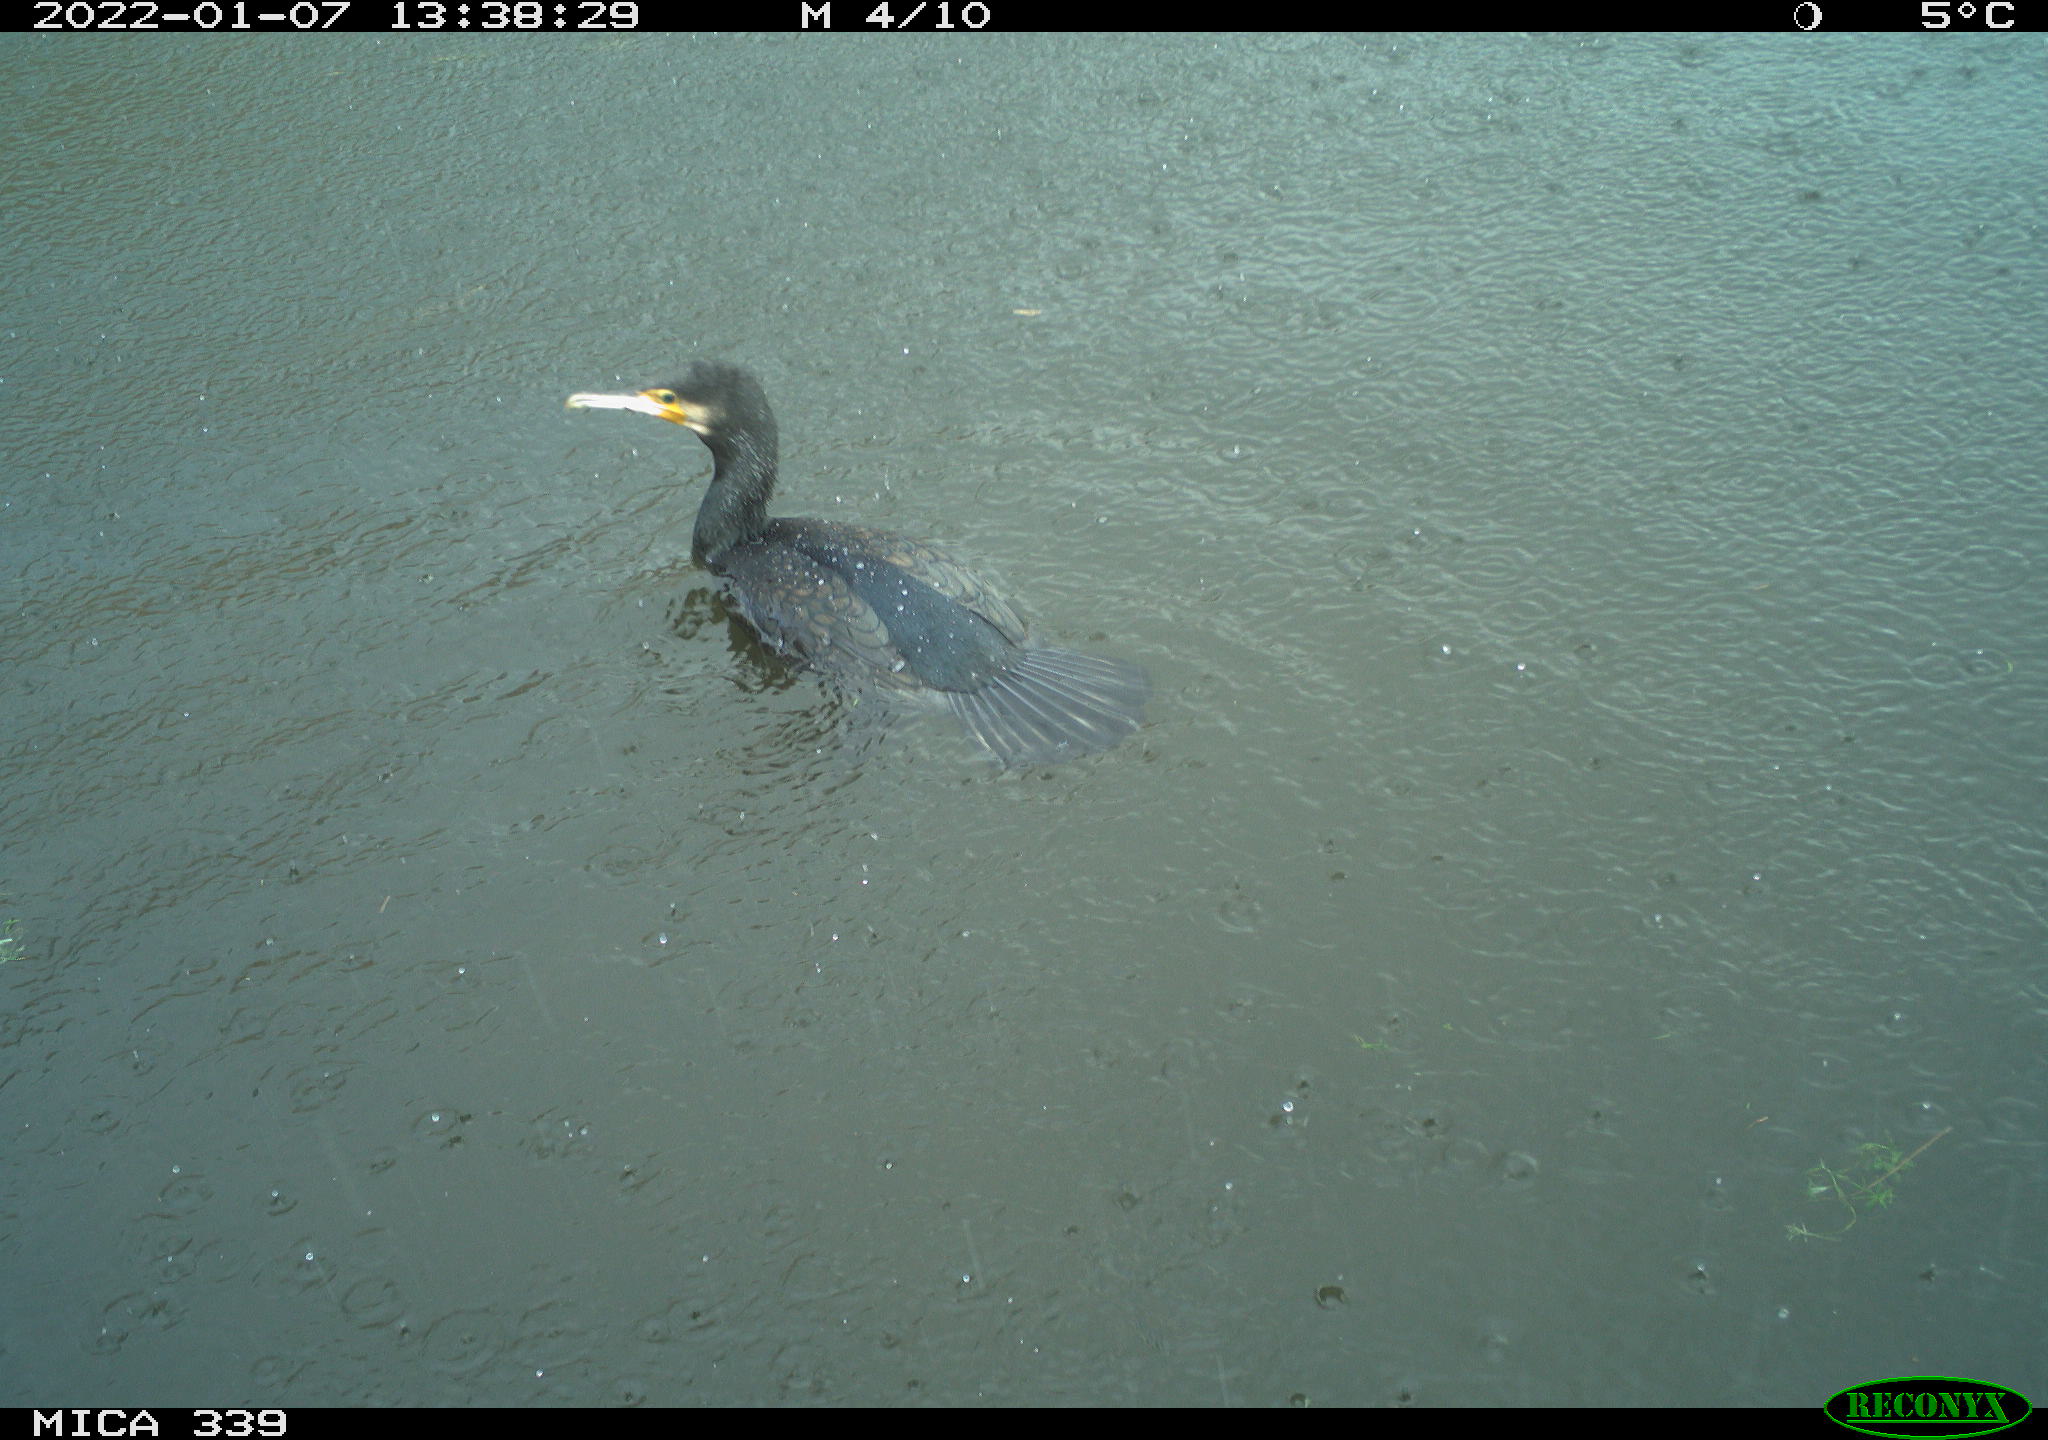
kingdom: Animalia
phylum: Chordata
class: Aves
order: Suliformes
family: Phalacrocoracidae
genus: Phalacrocorax
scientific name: Phalacrocorax carbo
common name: Great cormorant
